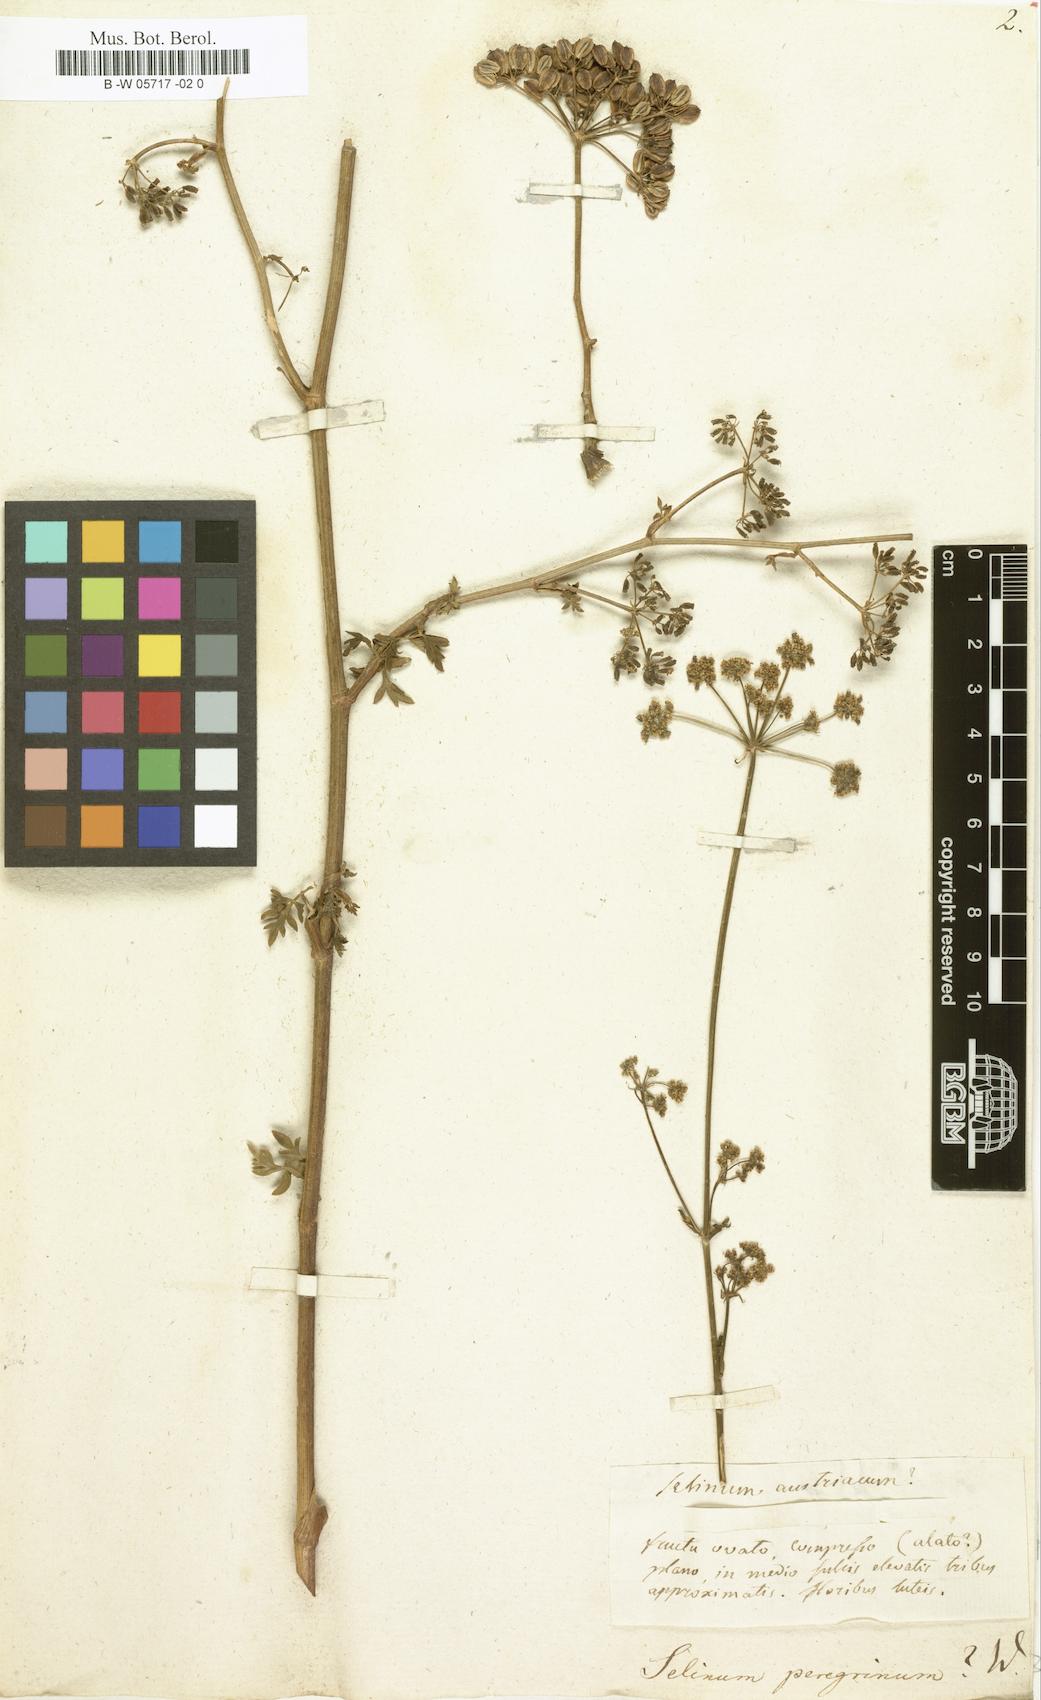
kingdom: Plantae
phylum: Tracheophyta
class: Magnoliopsida
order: Apiales
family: Apiaceae
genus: Carum
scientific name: Carum appuanum
